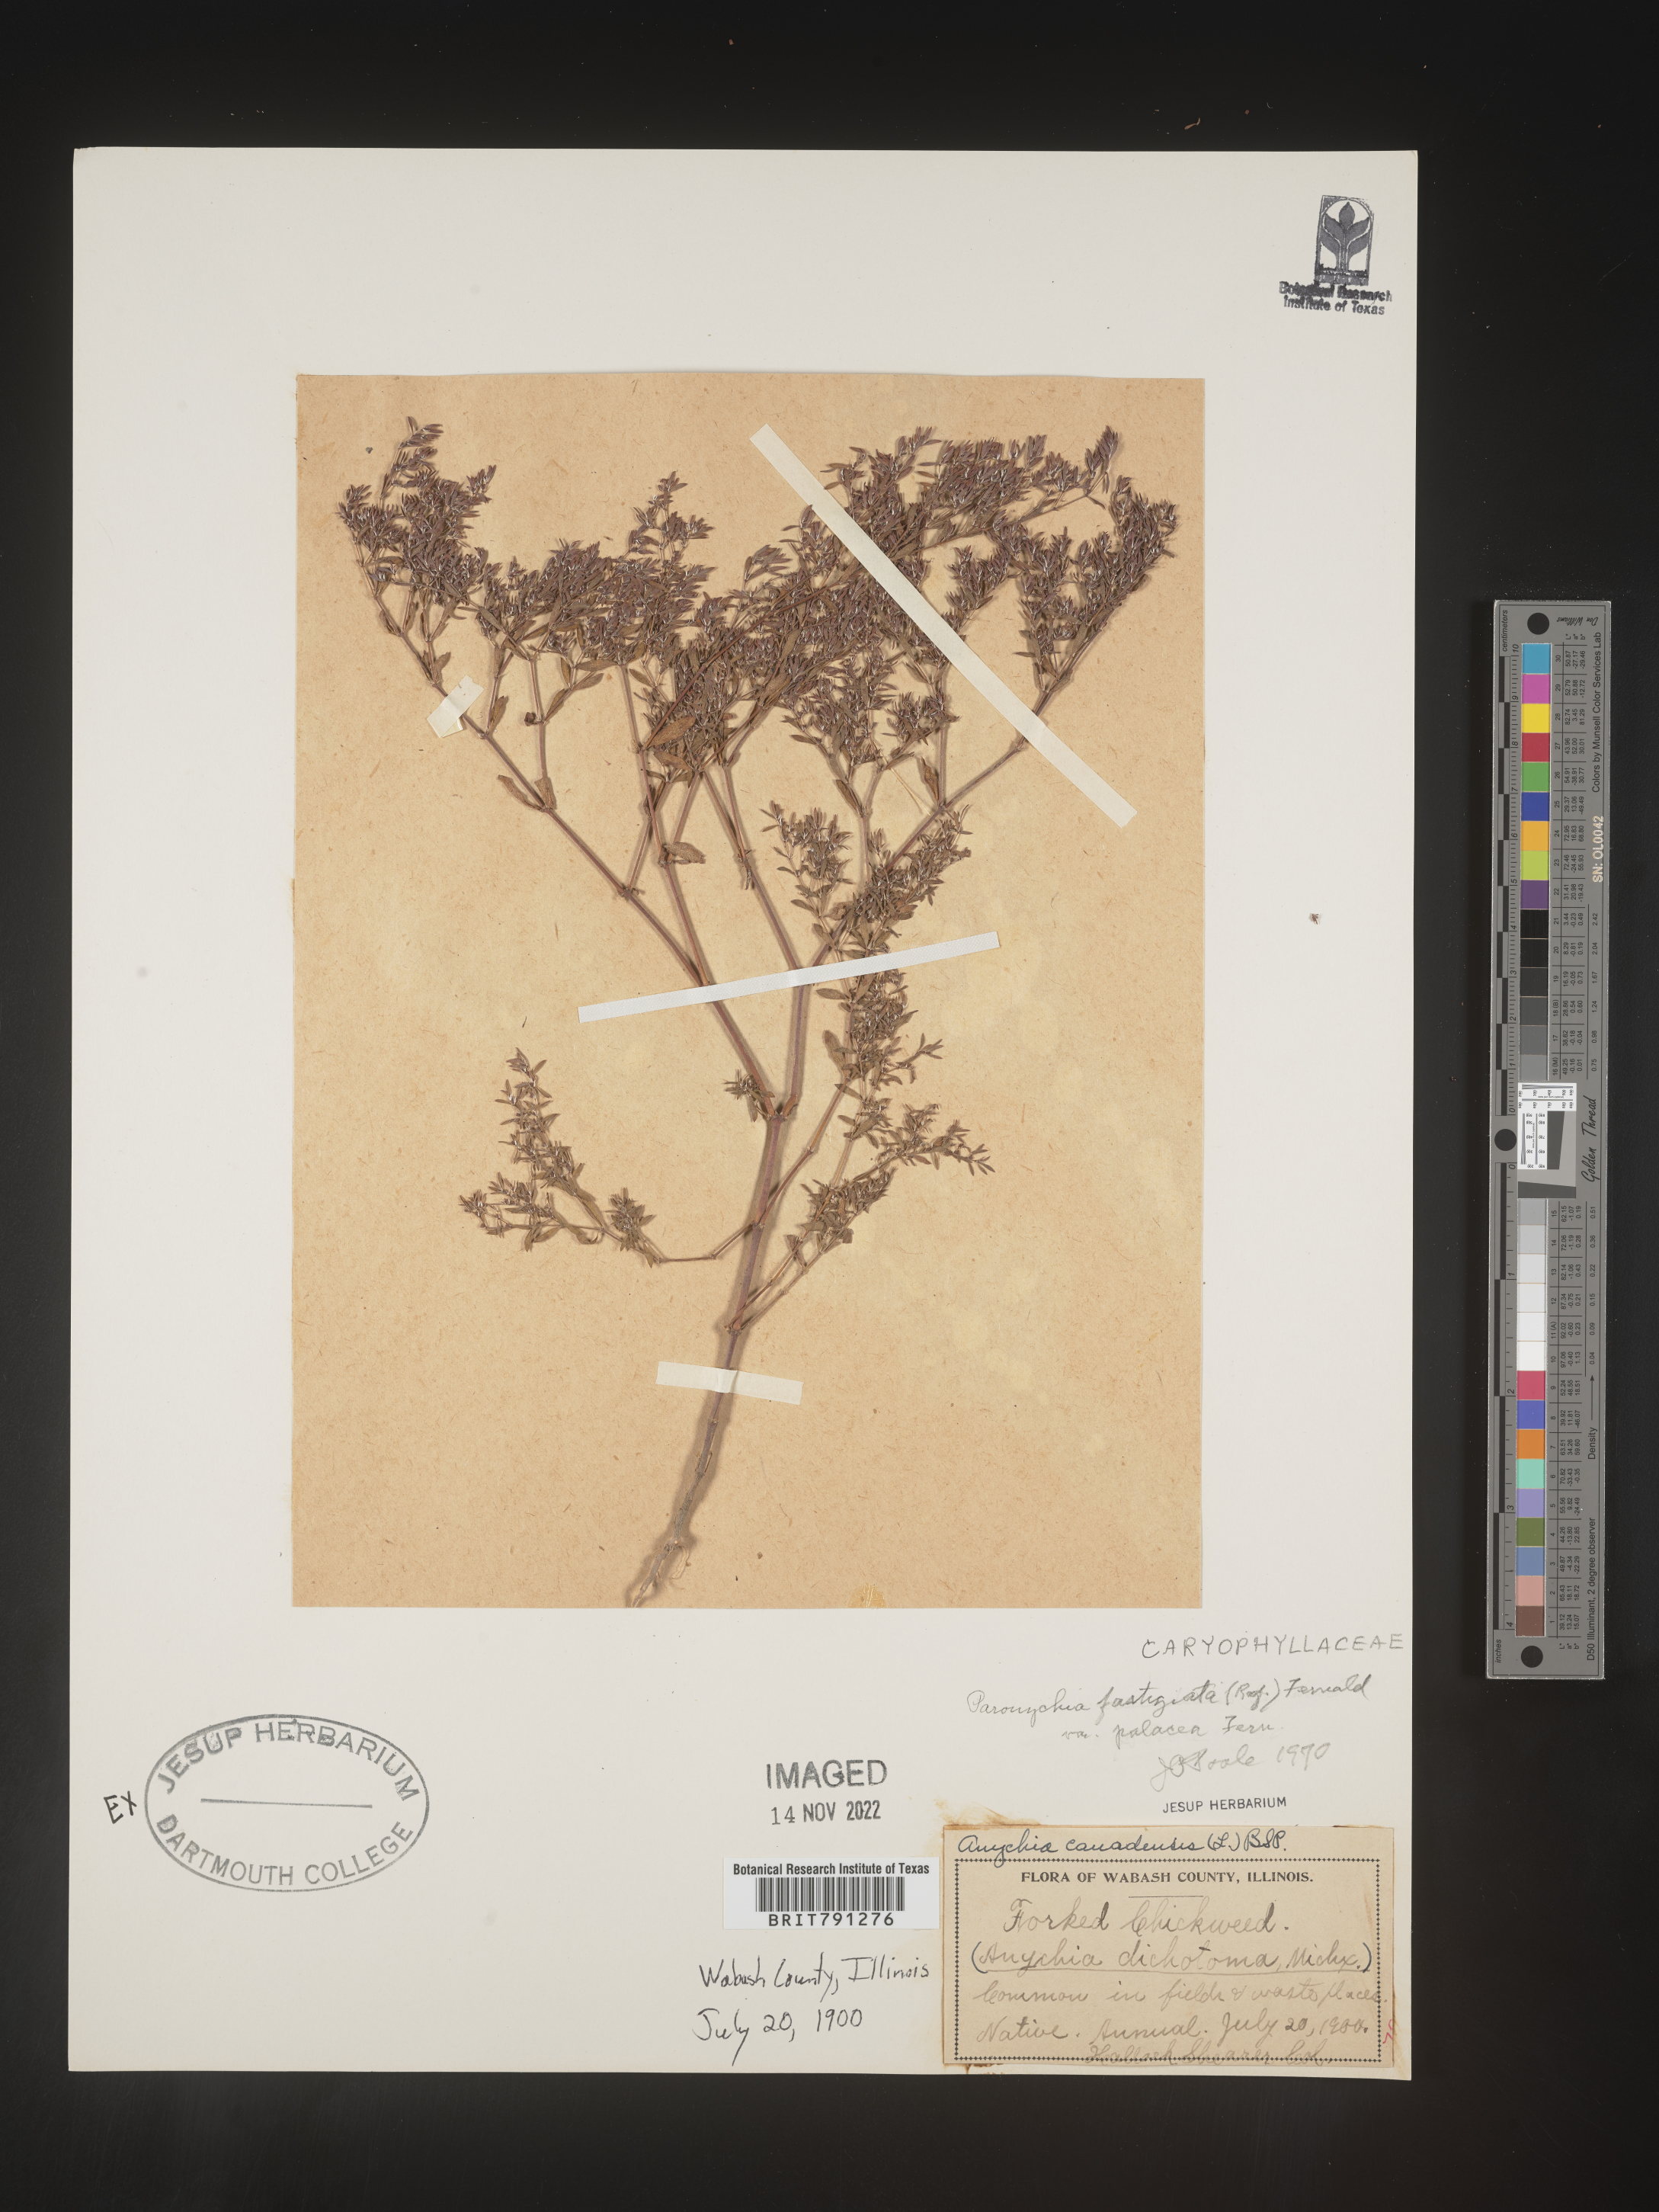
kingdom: Plantae
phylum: Tracheophyta
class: Magnoliopsida
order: Caryophyllales
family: Caryophyllaceae
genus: Paronychia
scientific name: Paronychia fastigiata
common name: Branching forked whitlow-wort
